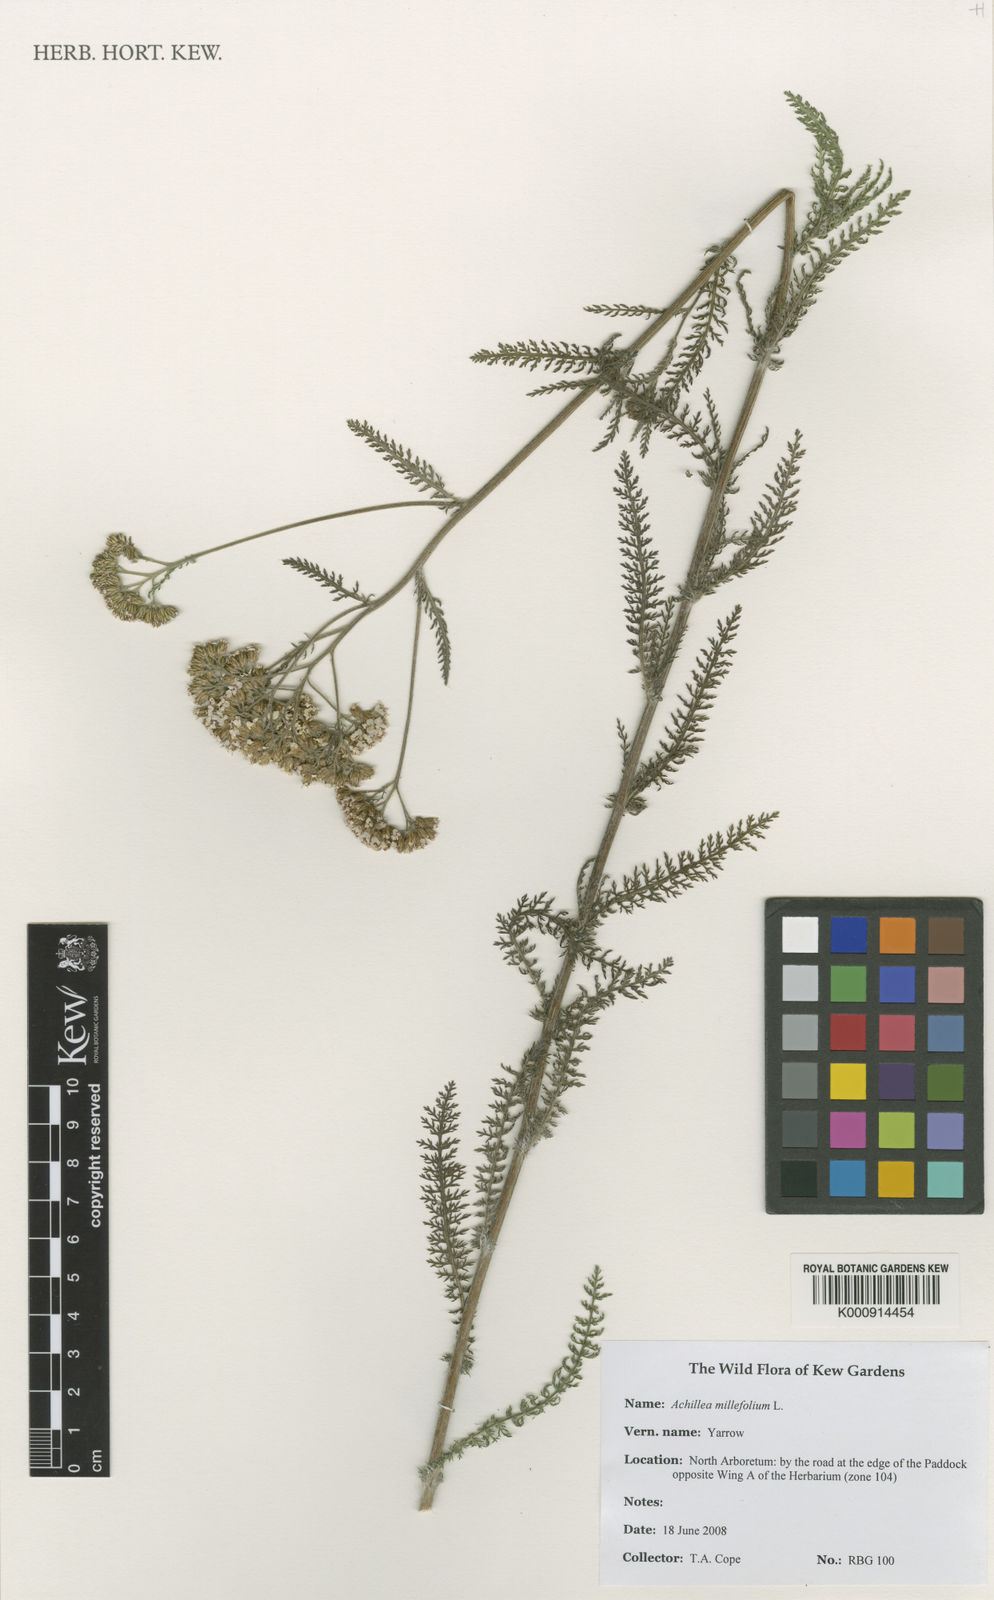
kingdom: Plantae
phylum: Tracheophyta
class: Magnoliopsida
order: Asterales
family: Asteraceae
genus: Achillea
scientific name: Achillea millefolium
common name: Yarrow
